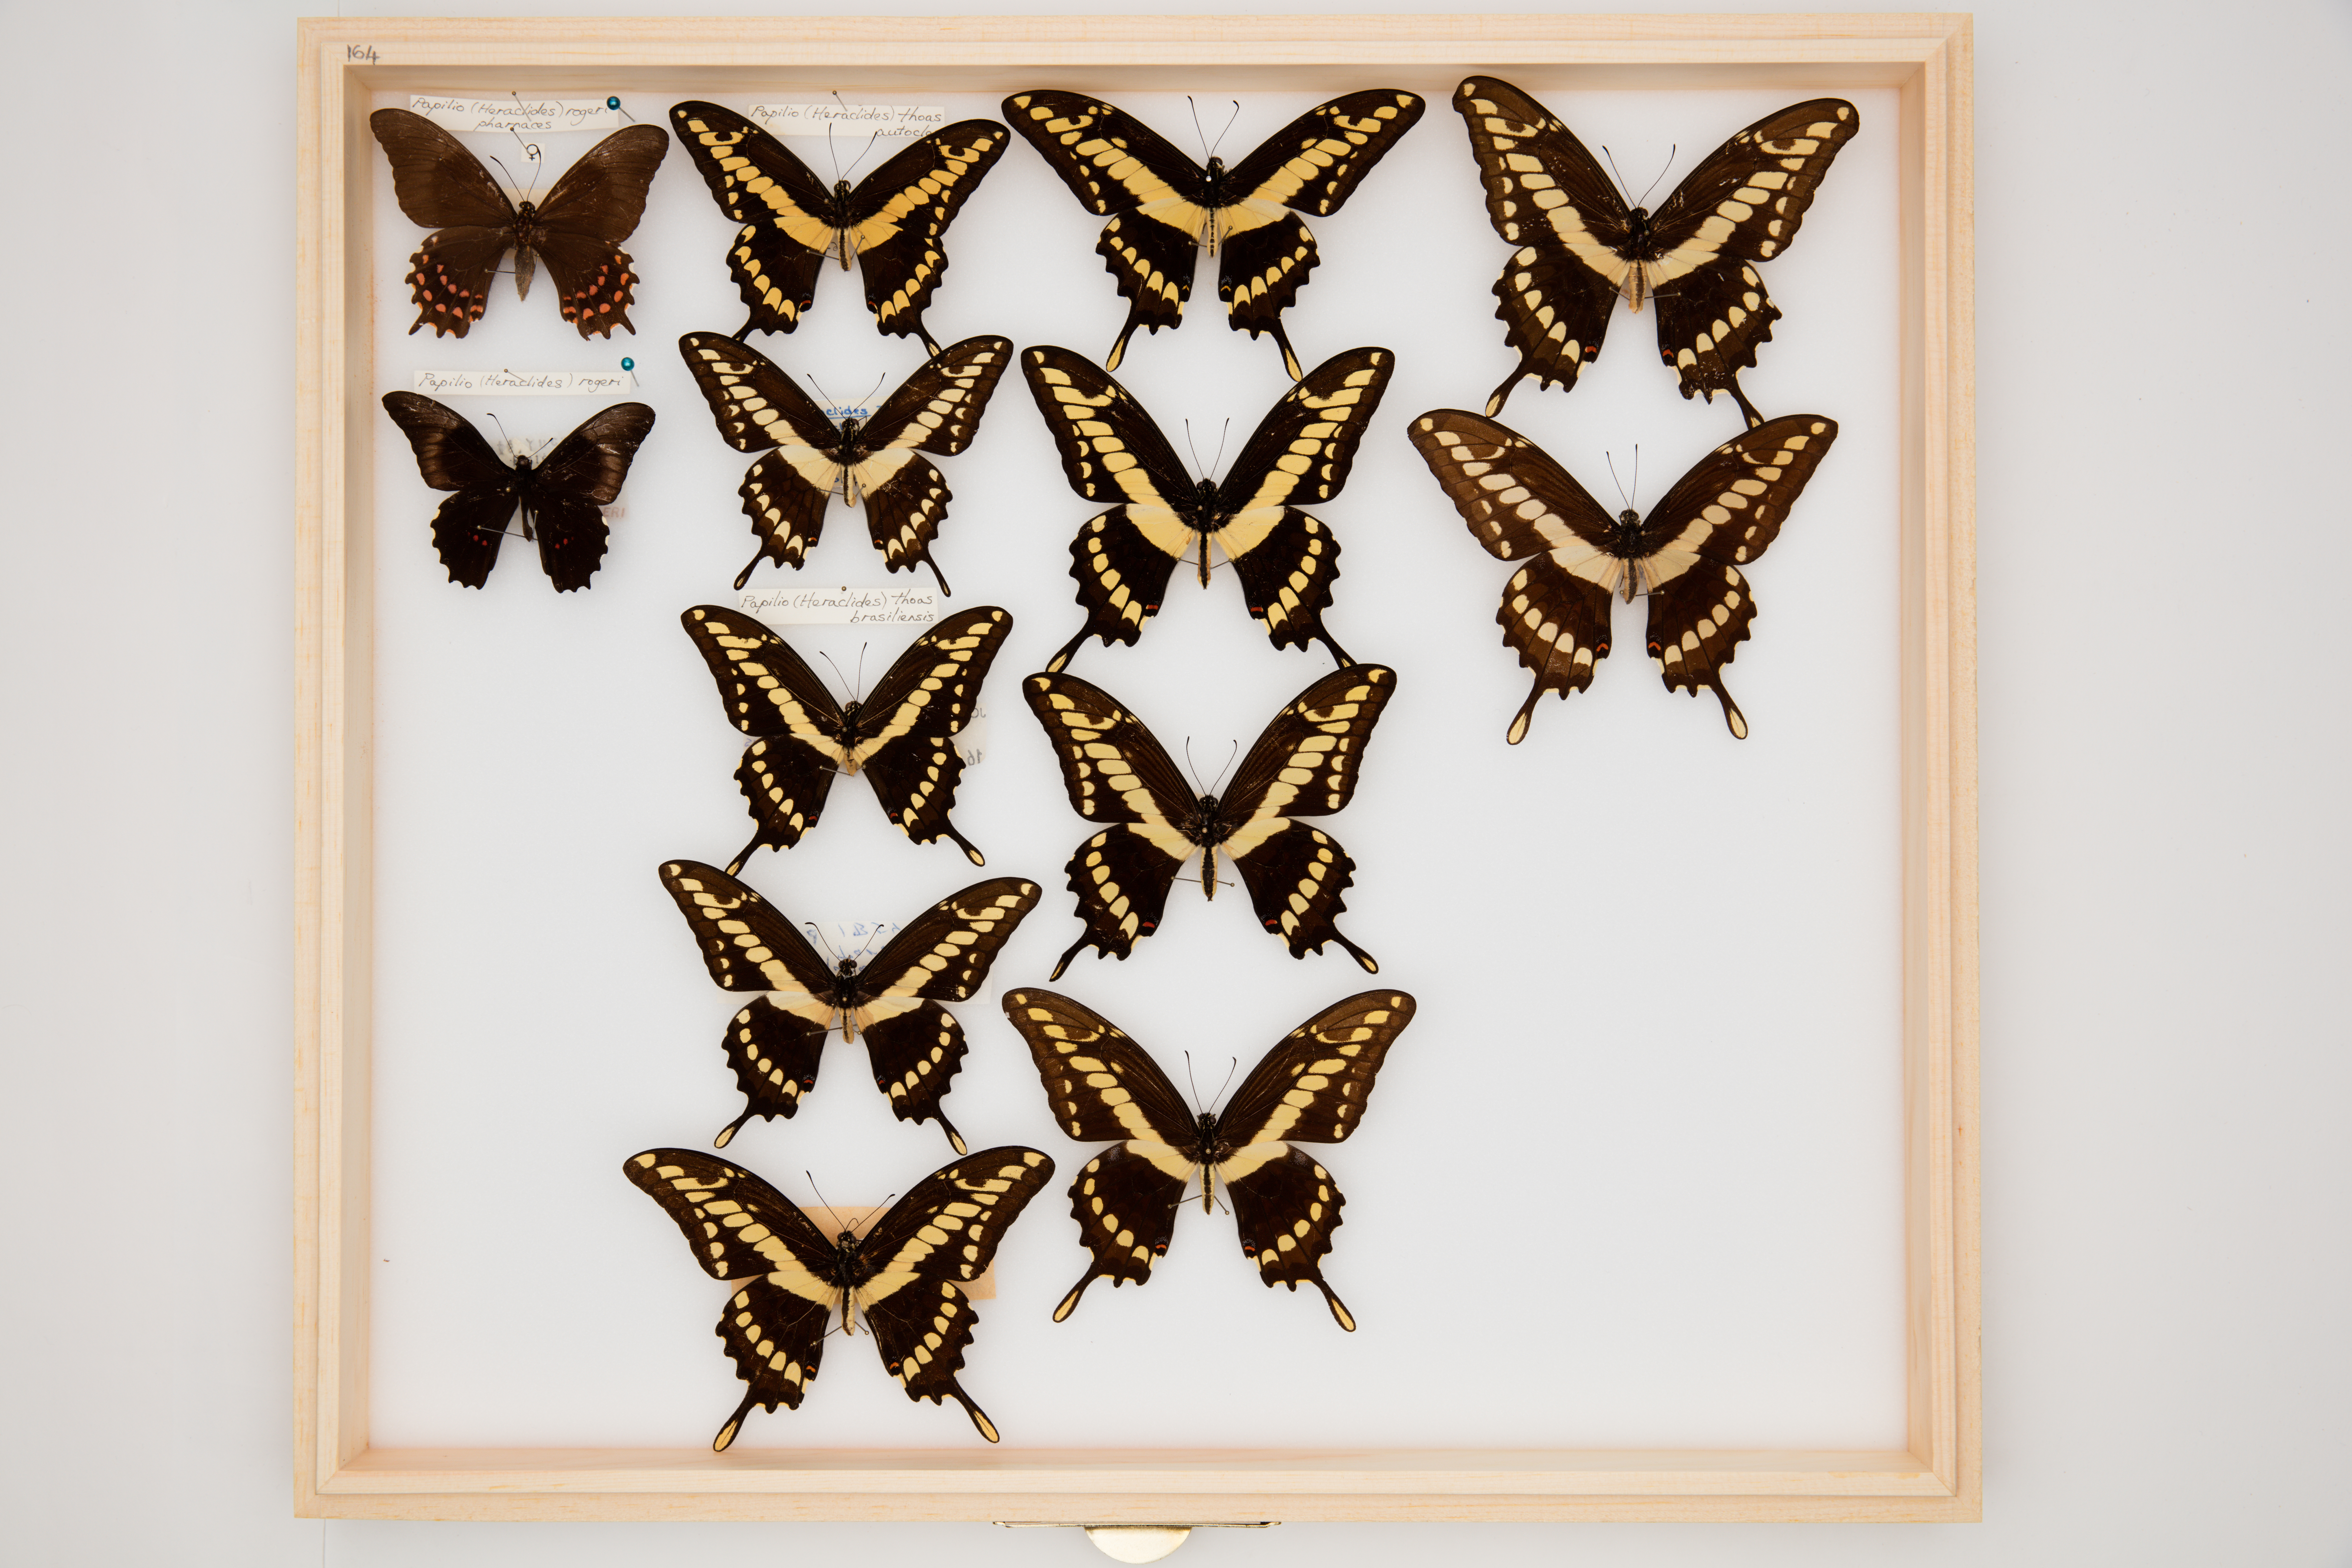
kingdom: Animalia
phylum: Arthropoda
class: Insecta
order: Lepidoptera
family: Papilionidae
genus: Papilio
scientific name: Papilio thoas
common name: King swallowtail
